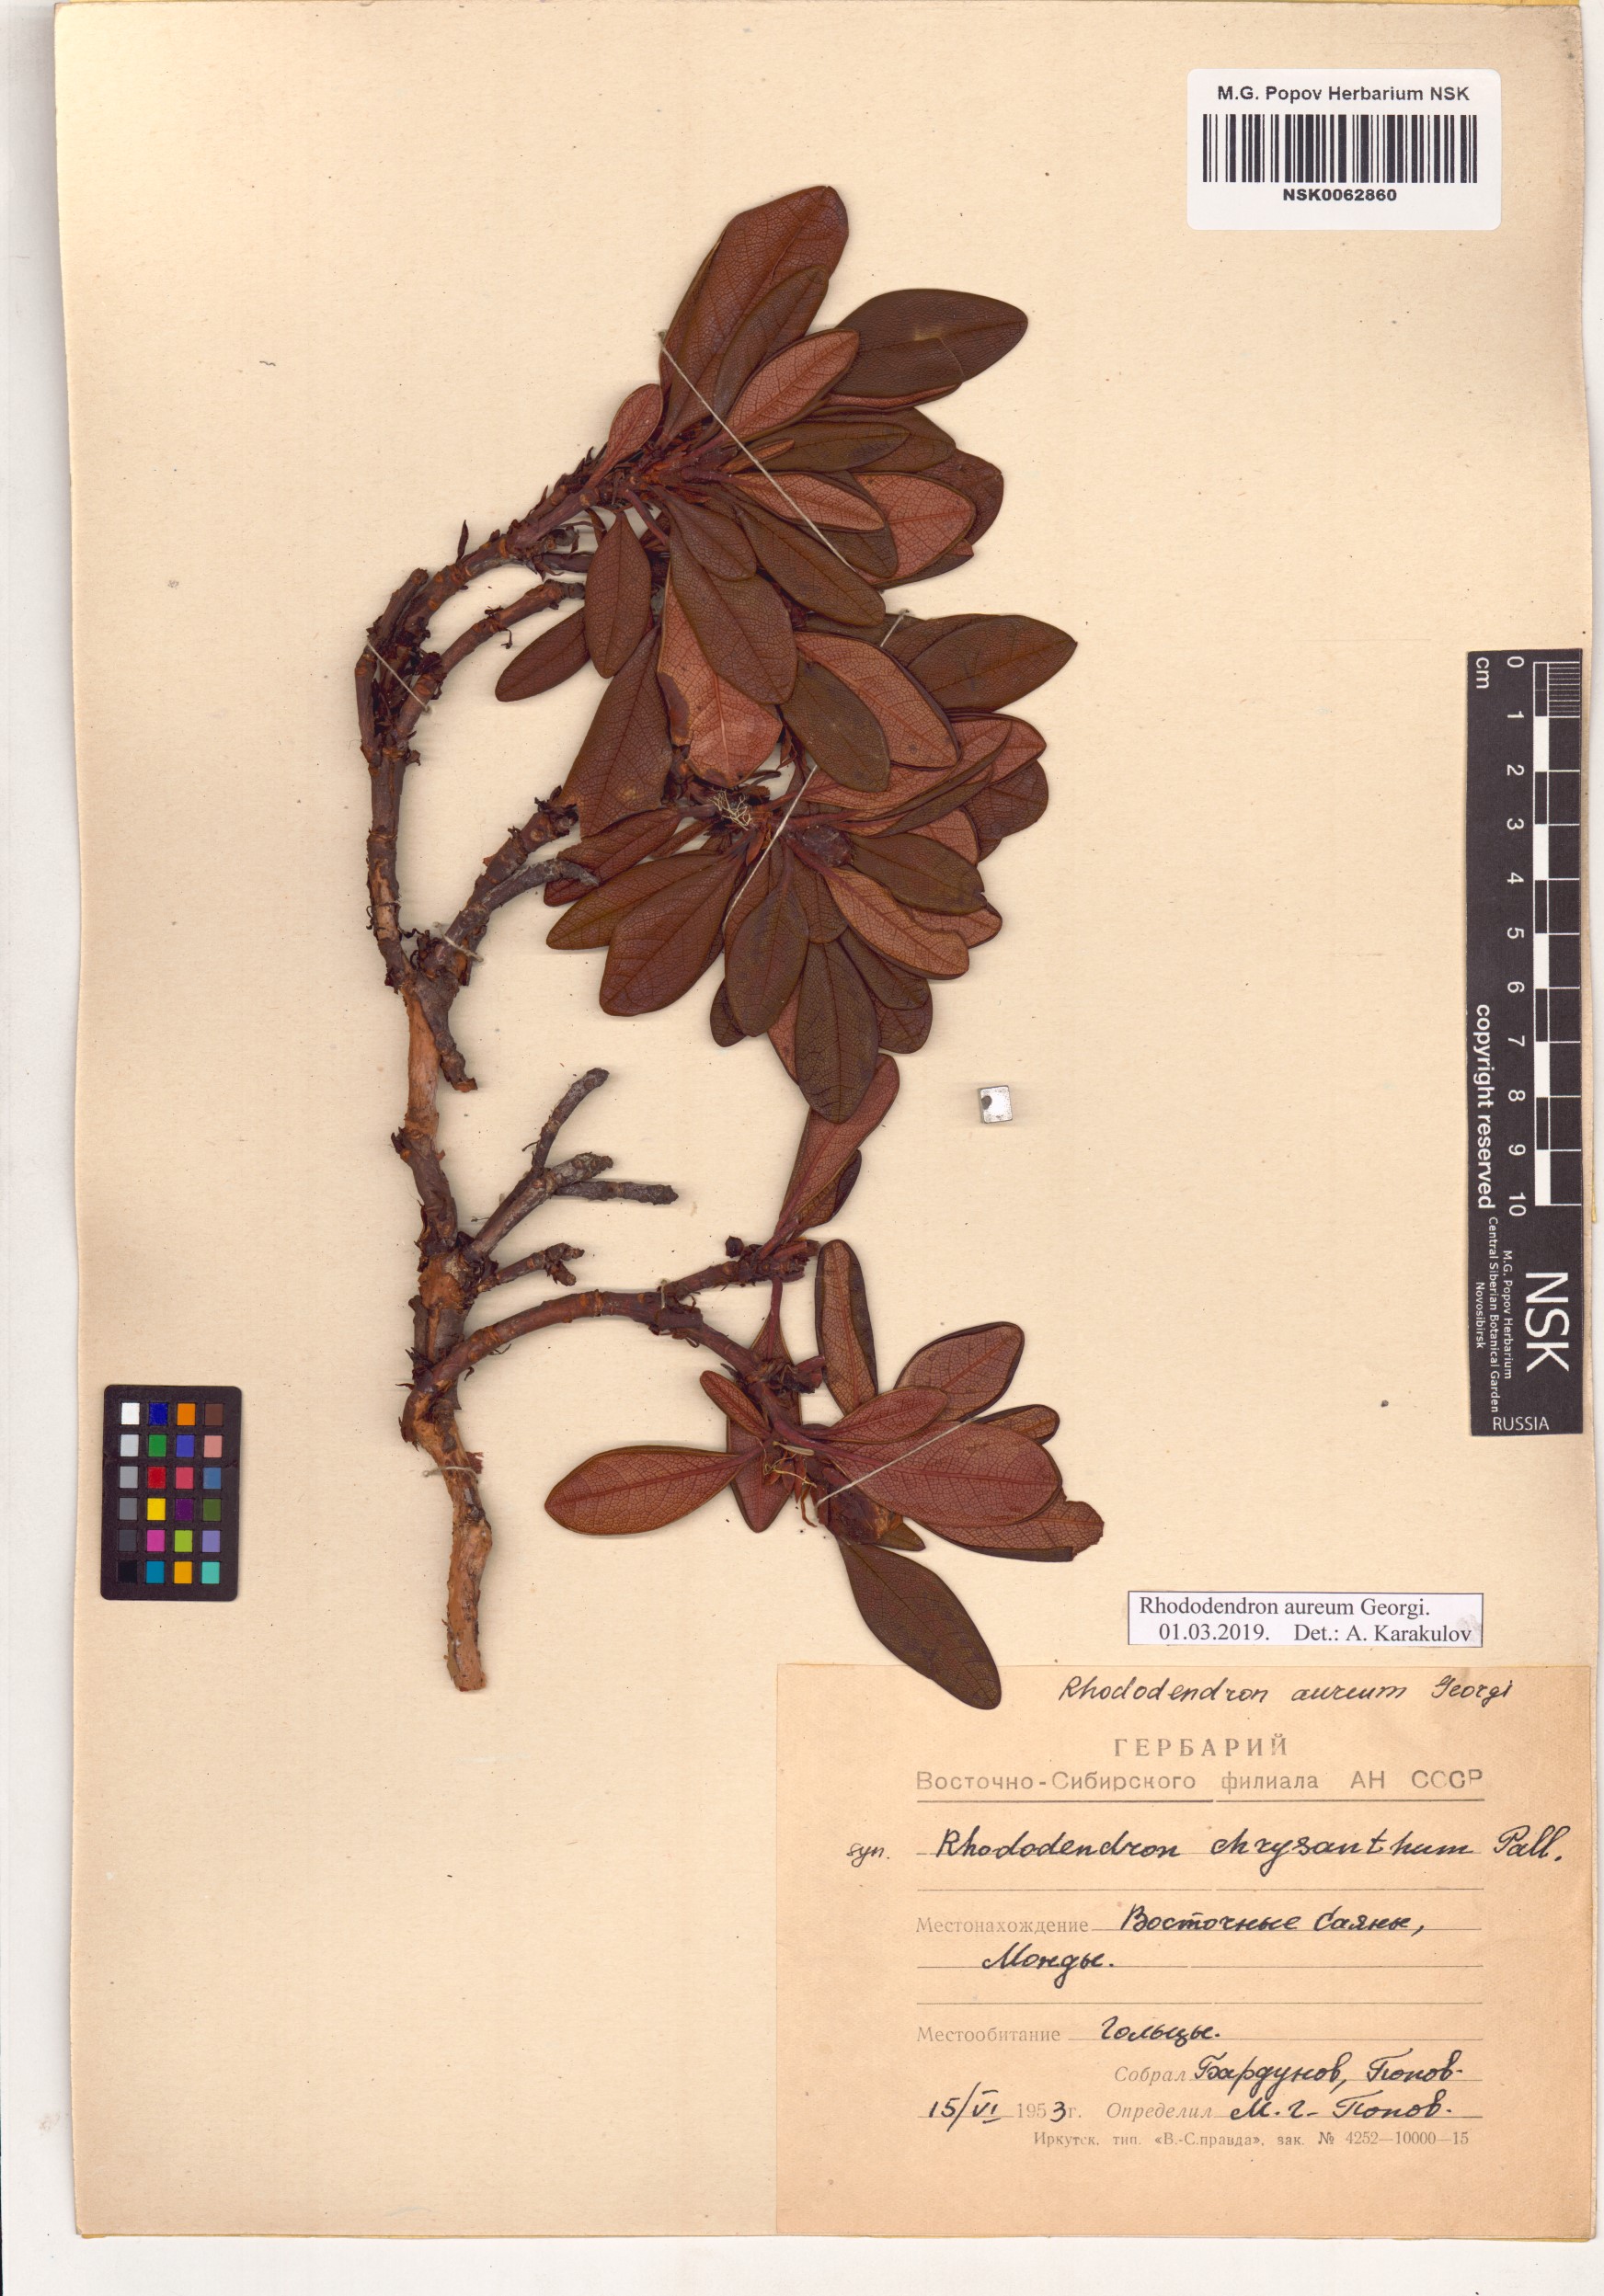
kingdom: Plantae
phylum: Tracheophyta
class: Magnoliopsida
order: Ericales
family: Ericaceae
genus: Rhododendron
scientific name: Rhododendron aureum
